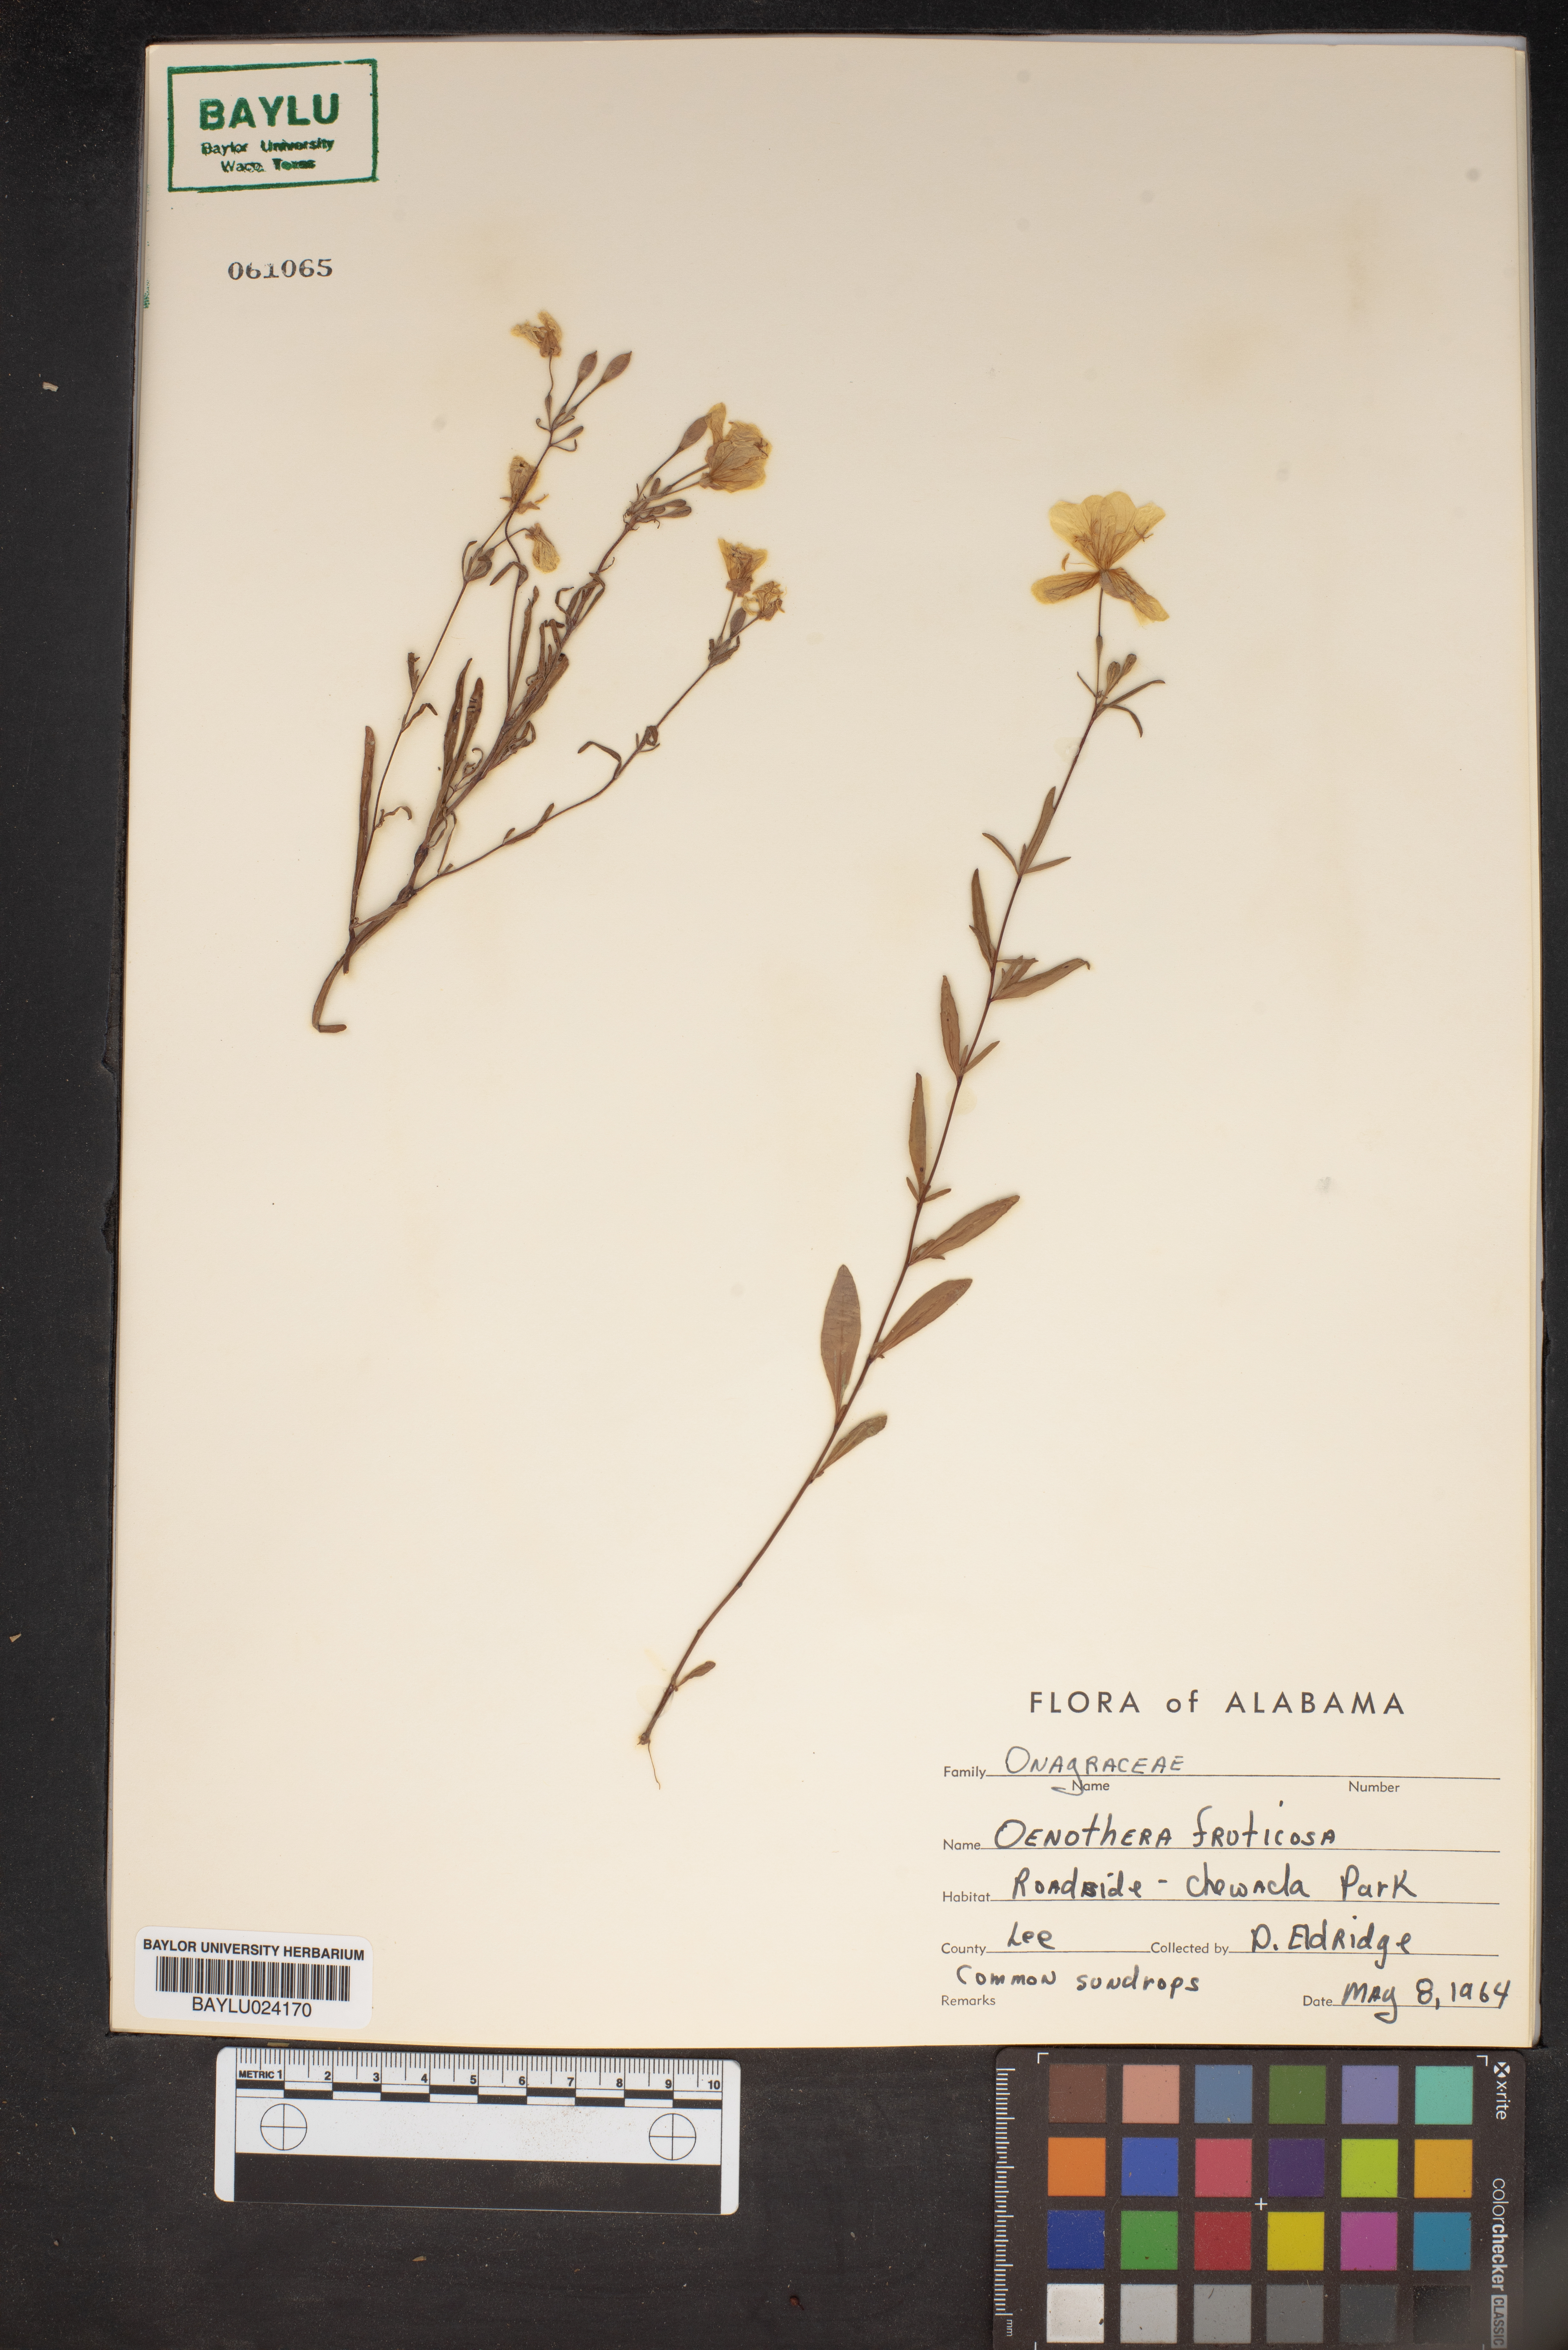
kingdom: Plantae
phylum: Tracheophyta
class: Magnoliopsida
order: Myrtales
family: Onagraceae
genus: Oenothera
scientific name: Oenothera fruticosa
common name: Southern sundrops
